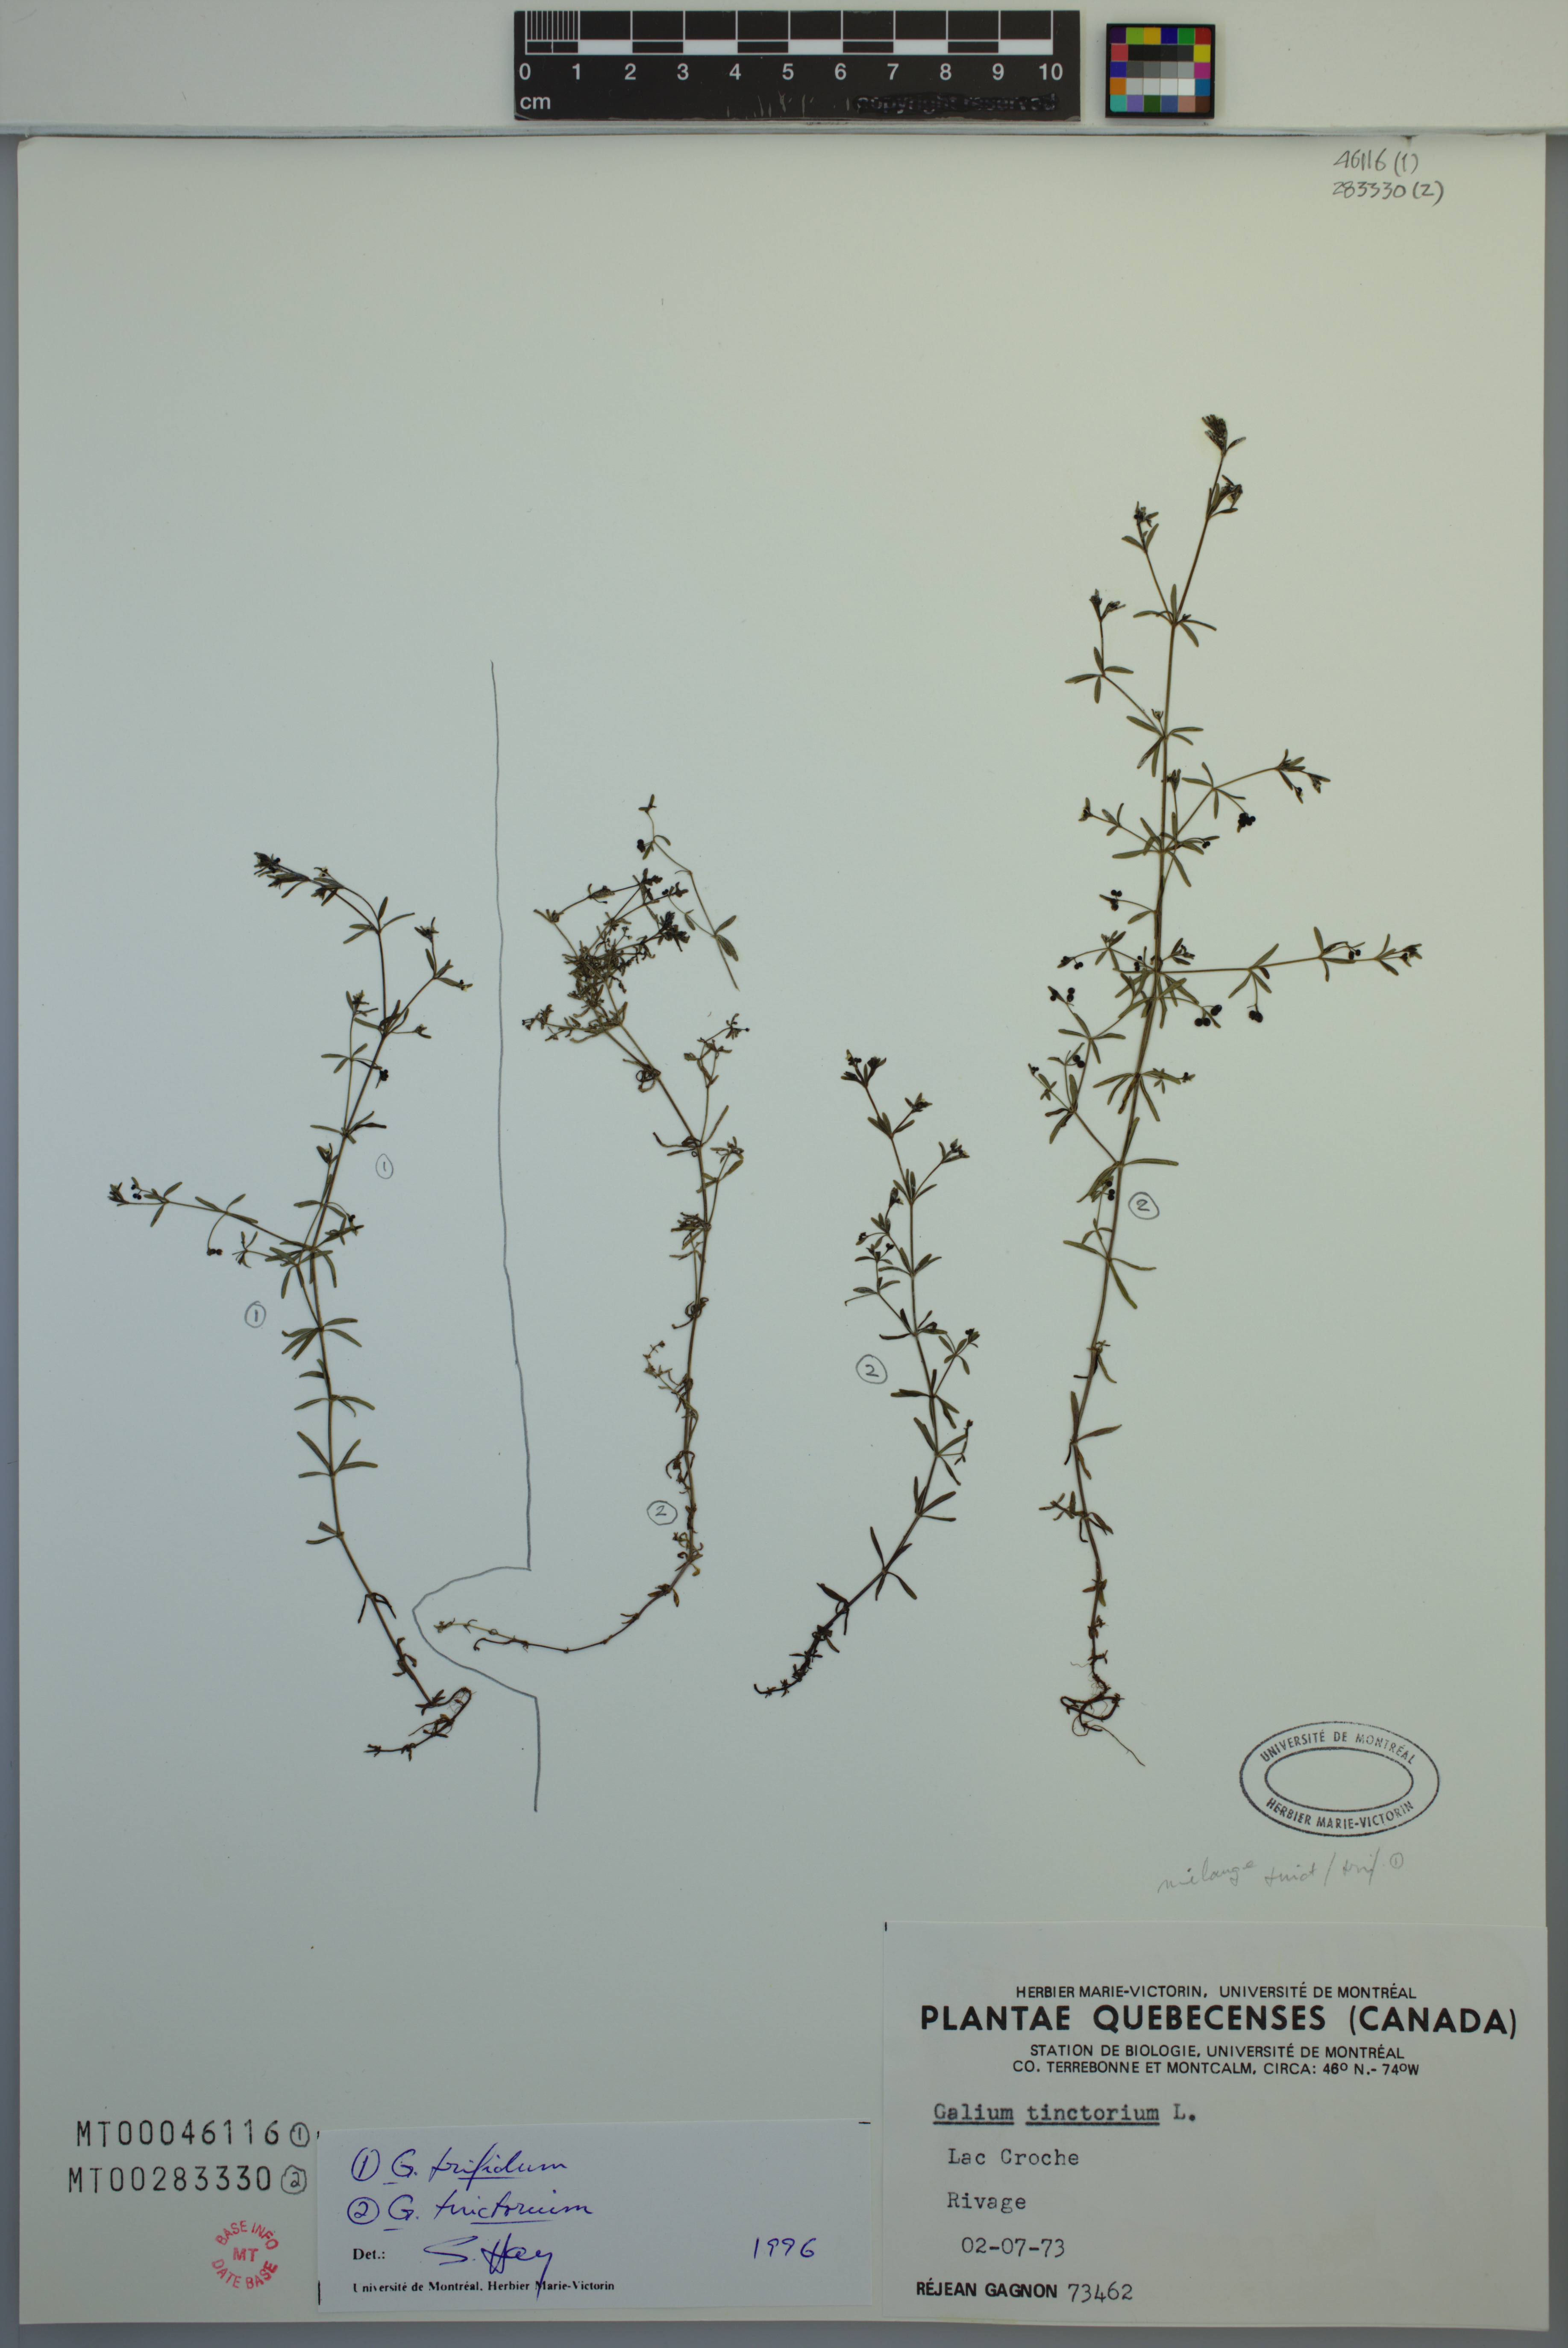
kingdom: Plantae
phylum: Tracheophyta
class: Magnoliopsida
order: Gentianales
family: Rubiaceae
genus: Galium
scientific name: Galium trifidum
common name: Small bedstraw
